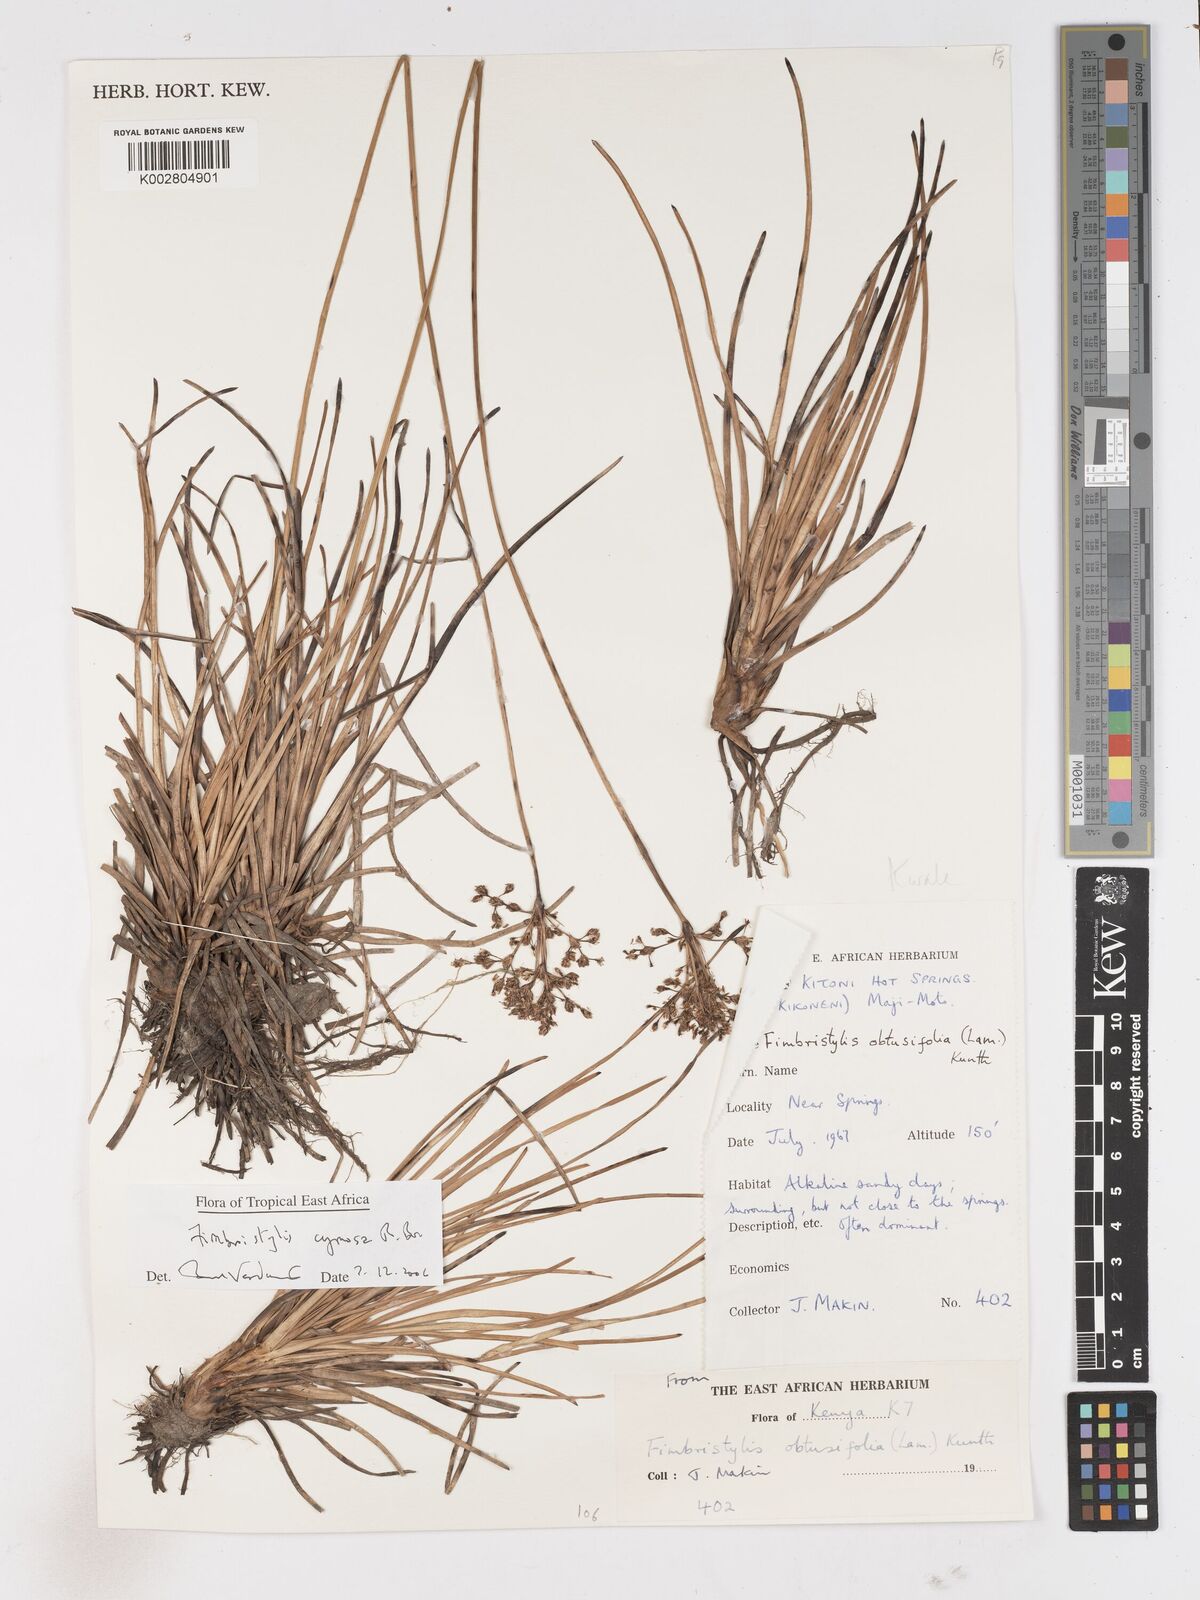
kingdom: Plantae
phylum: Tracheophyta
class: Liliopsida
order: Poales
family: Cyperaceae
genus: Fimbristylis
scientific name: Fimbristylis cymosa
